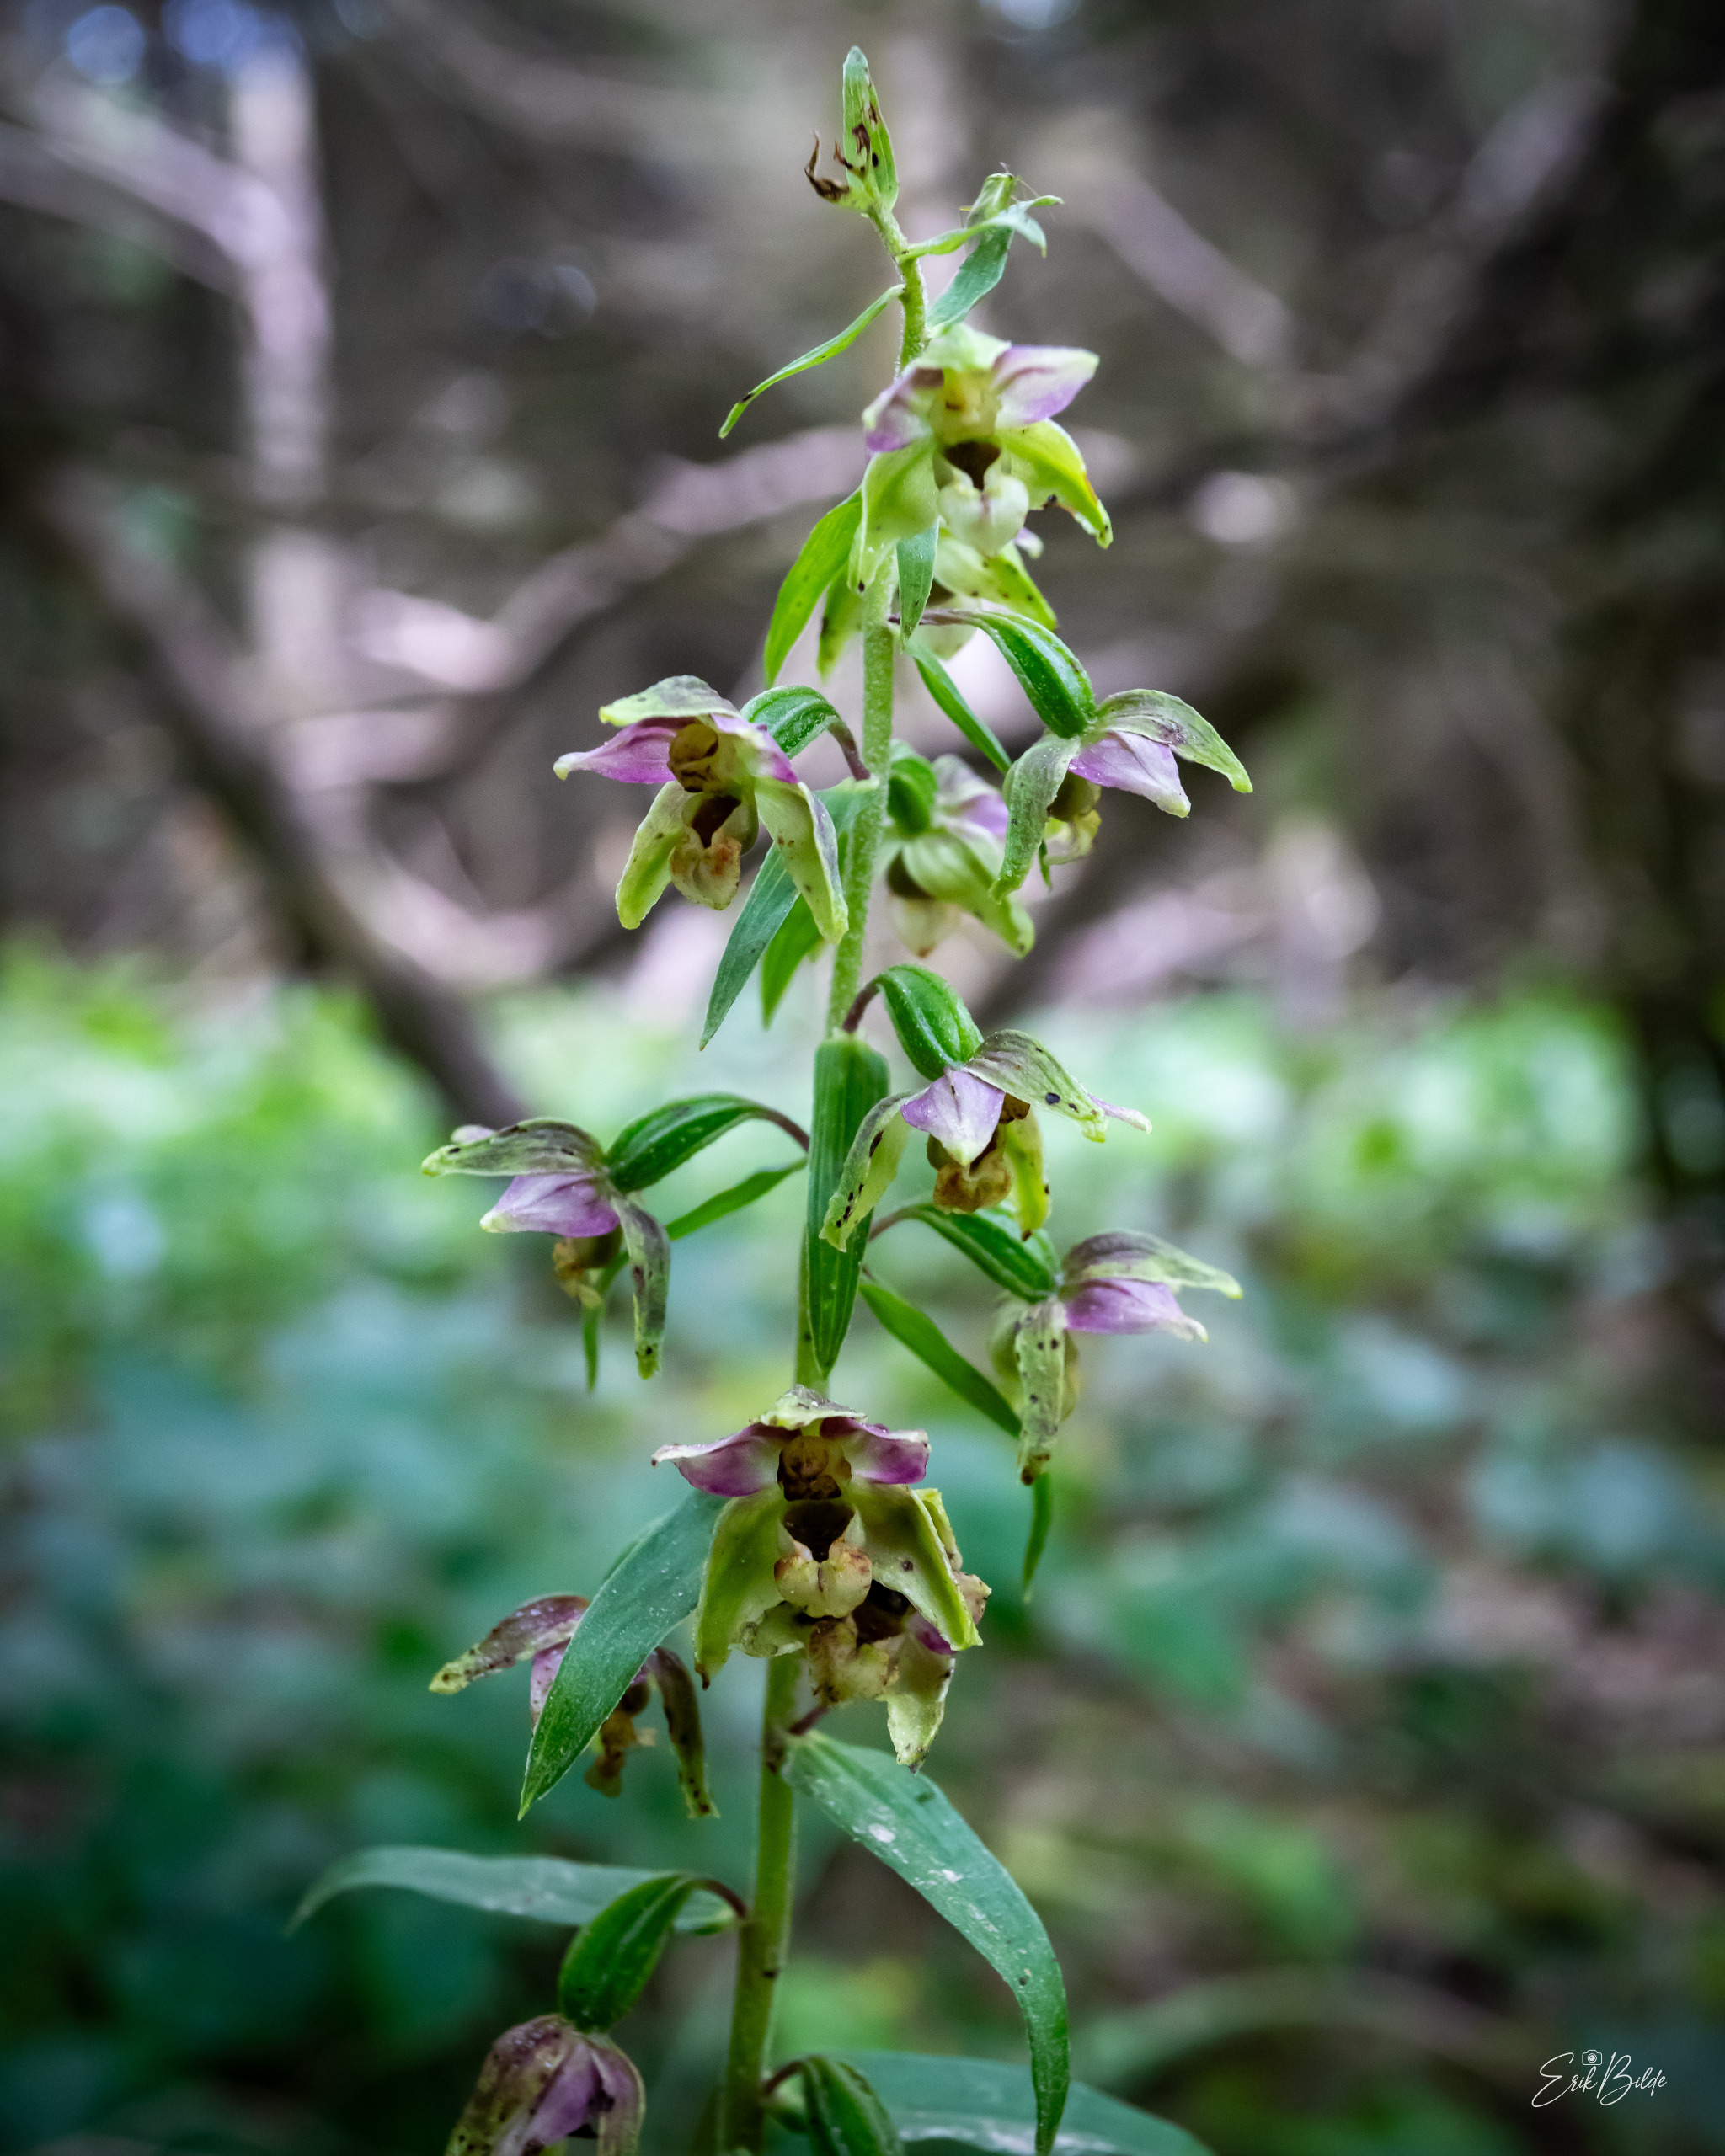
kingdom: Plantae
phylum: Tracheophyta
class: Liliopsida
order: Asparagales
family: Orchidaceae
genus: Epipactis
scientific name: Epipactis helleborine
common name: Skov-hullæbe
